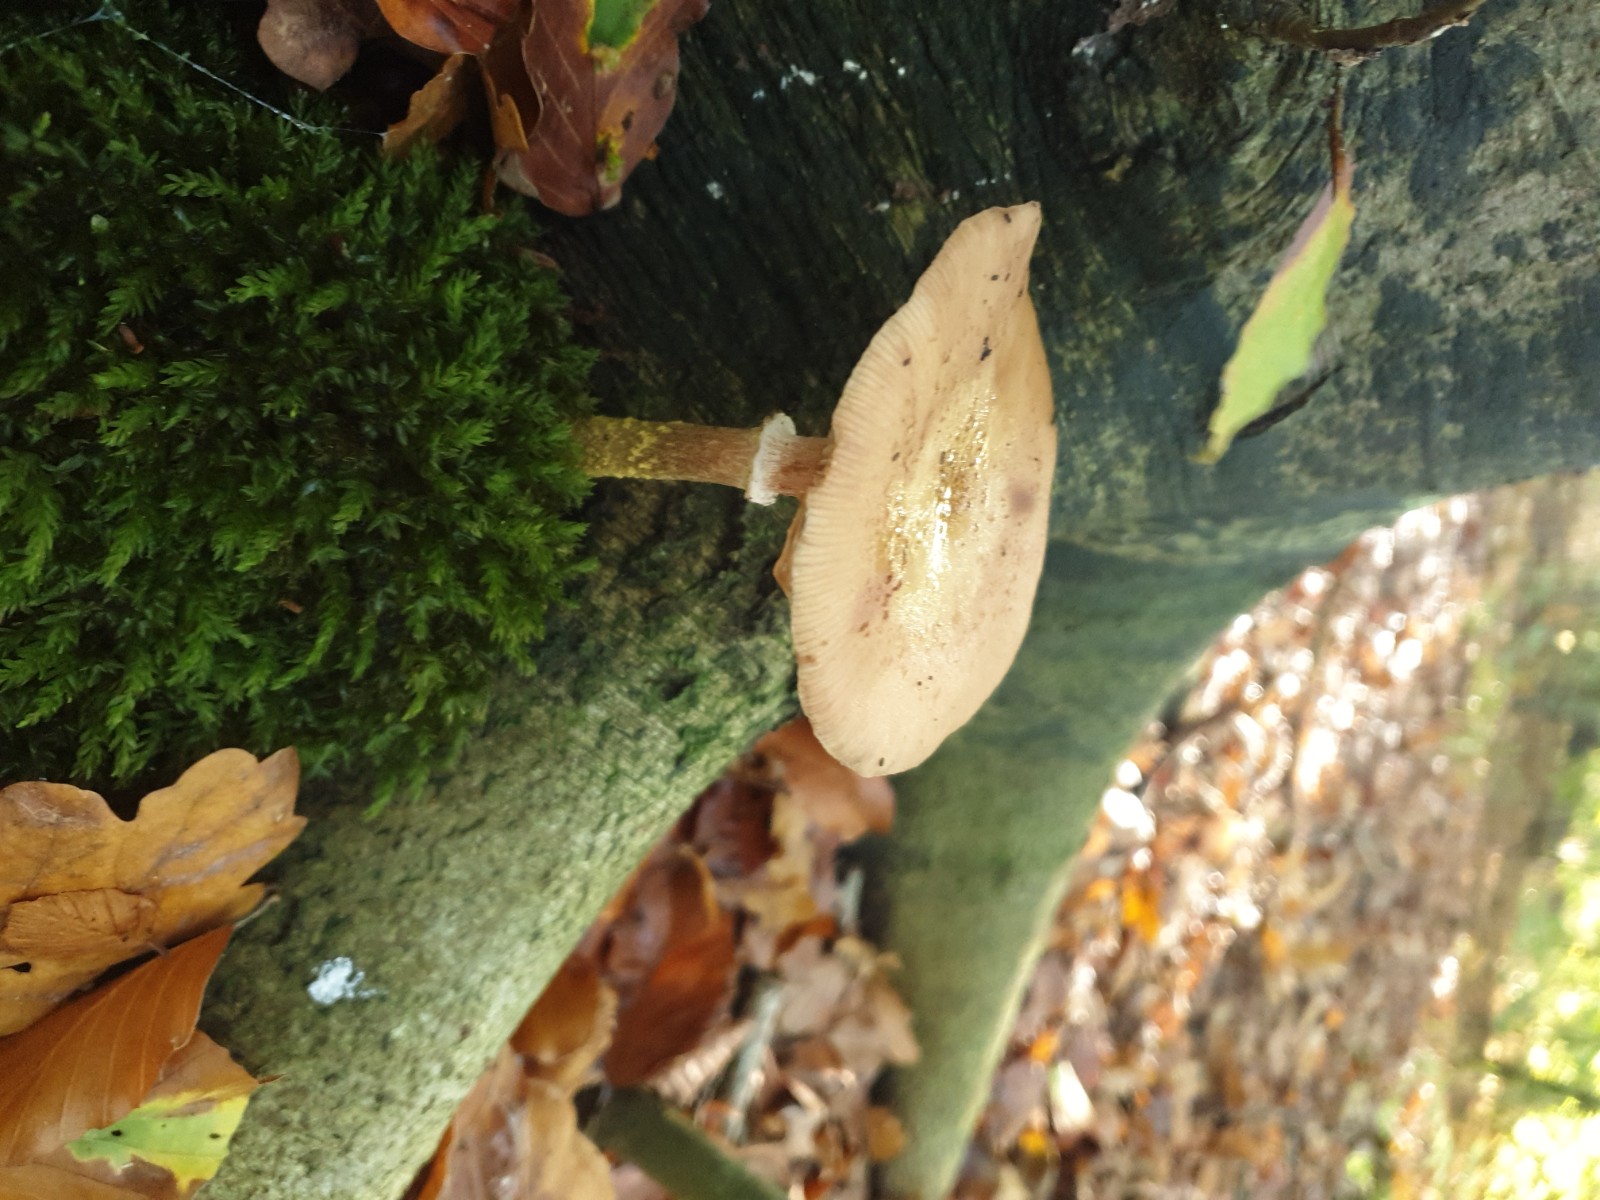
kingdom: Fungi
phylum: Basidiomycota
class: Agaricomycetes
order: Agaricales
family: Physalacriaceae
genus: Armillaria
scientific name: Armillaria
